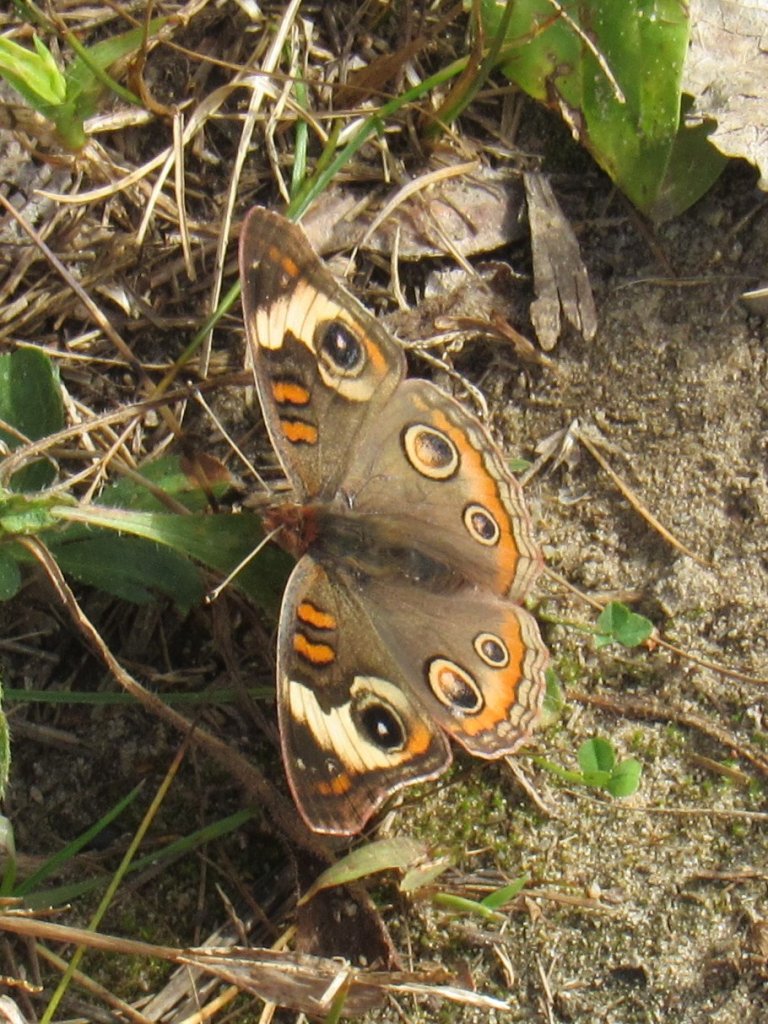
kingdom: Animalia
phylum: Arthropoda
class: Insecta
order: Lepidoptera
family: Nymphalidae
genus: Junonia
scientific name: Junonia coenia
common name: Common Buckeye
